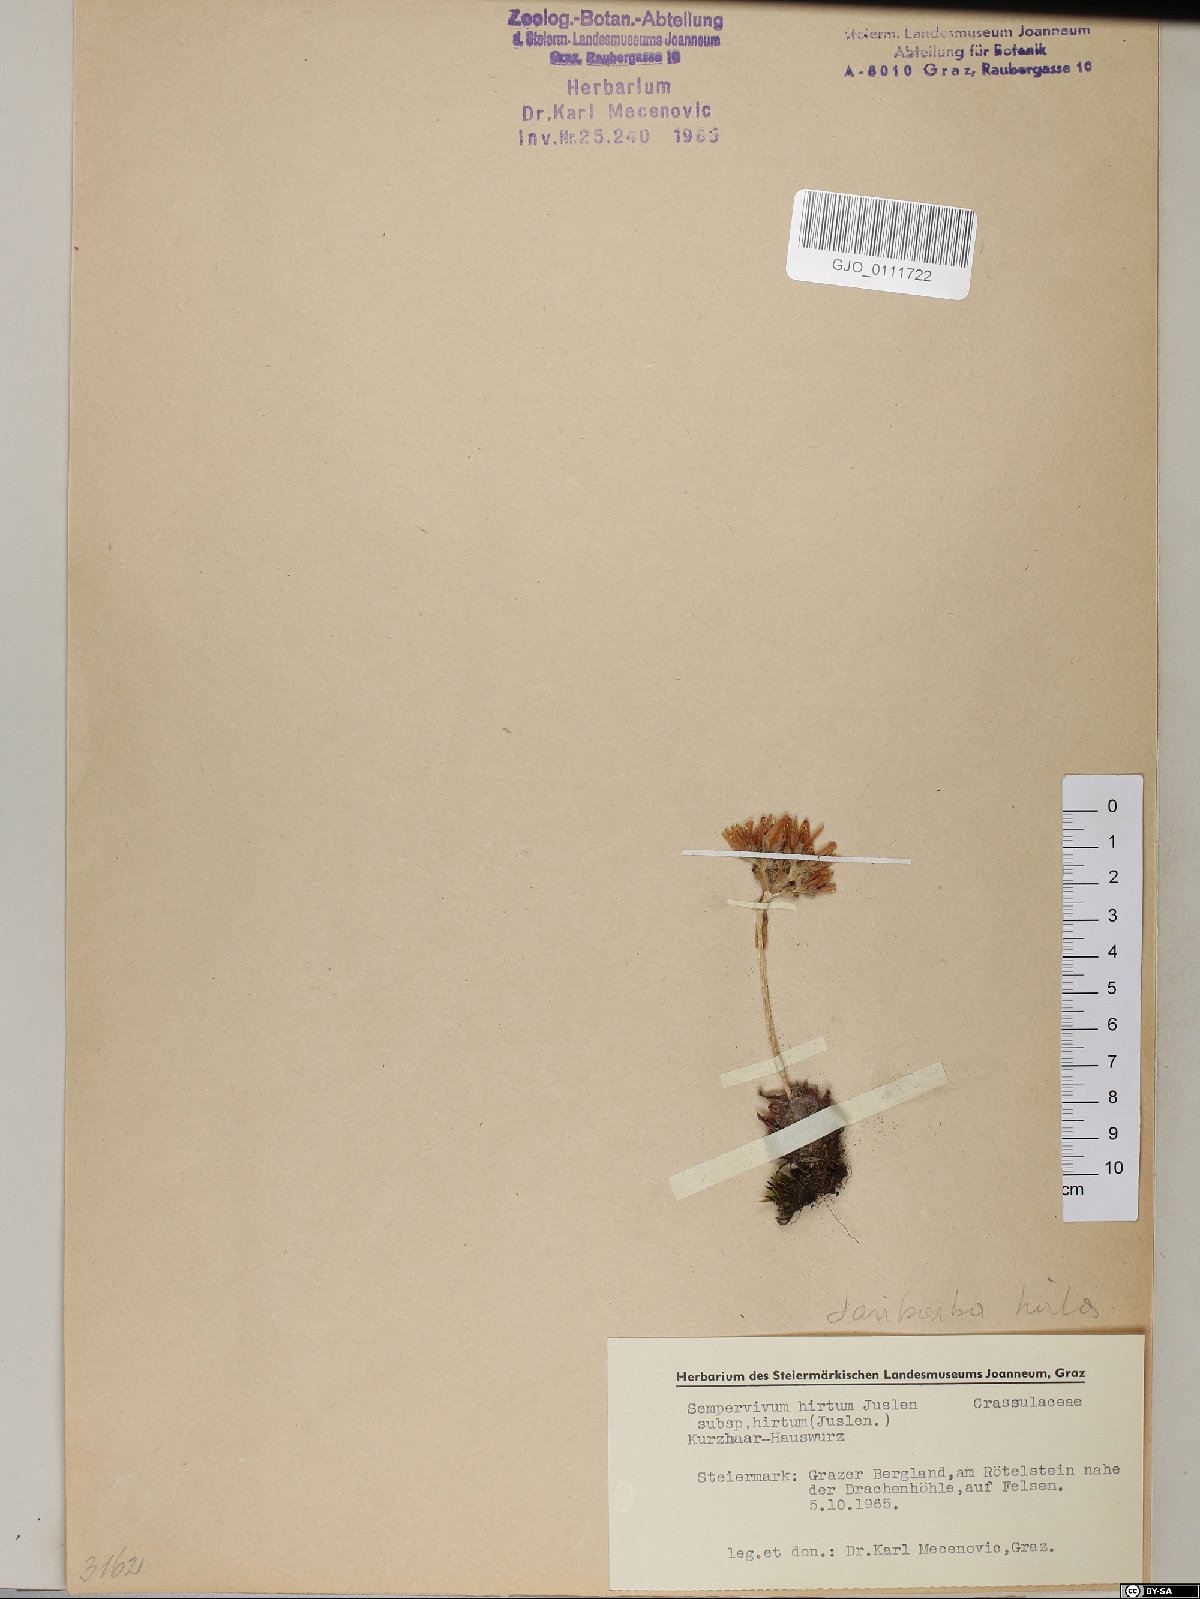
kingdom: Plantae
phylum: Tracheophyta
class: Magnoliopsida
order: Saxifragales
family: Crassulaceae
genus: Sempervivum
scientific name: Sempervivum
